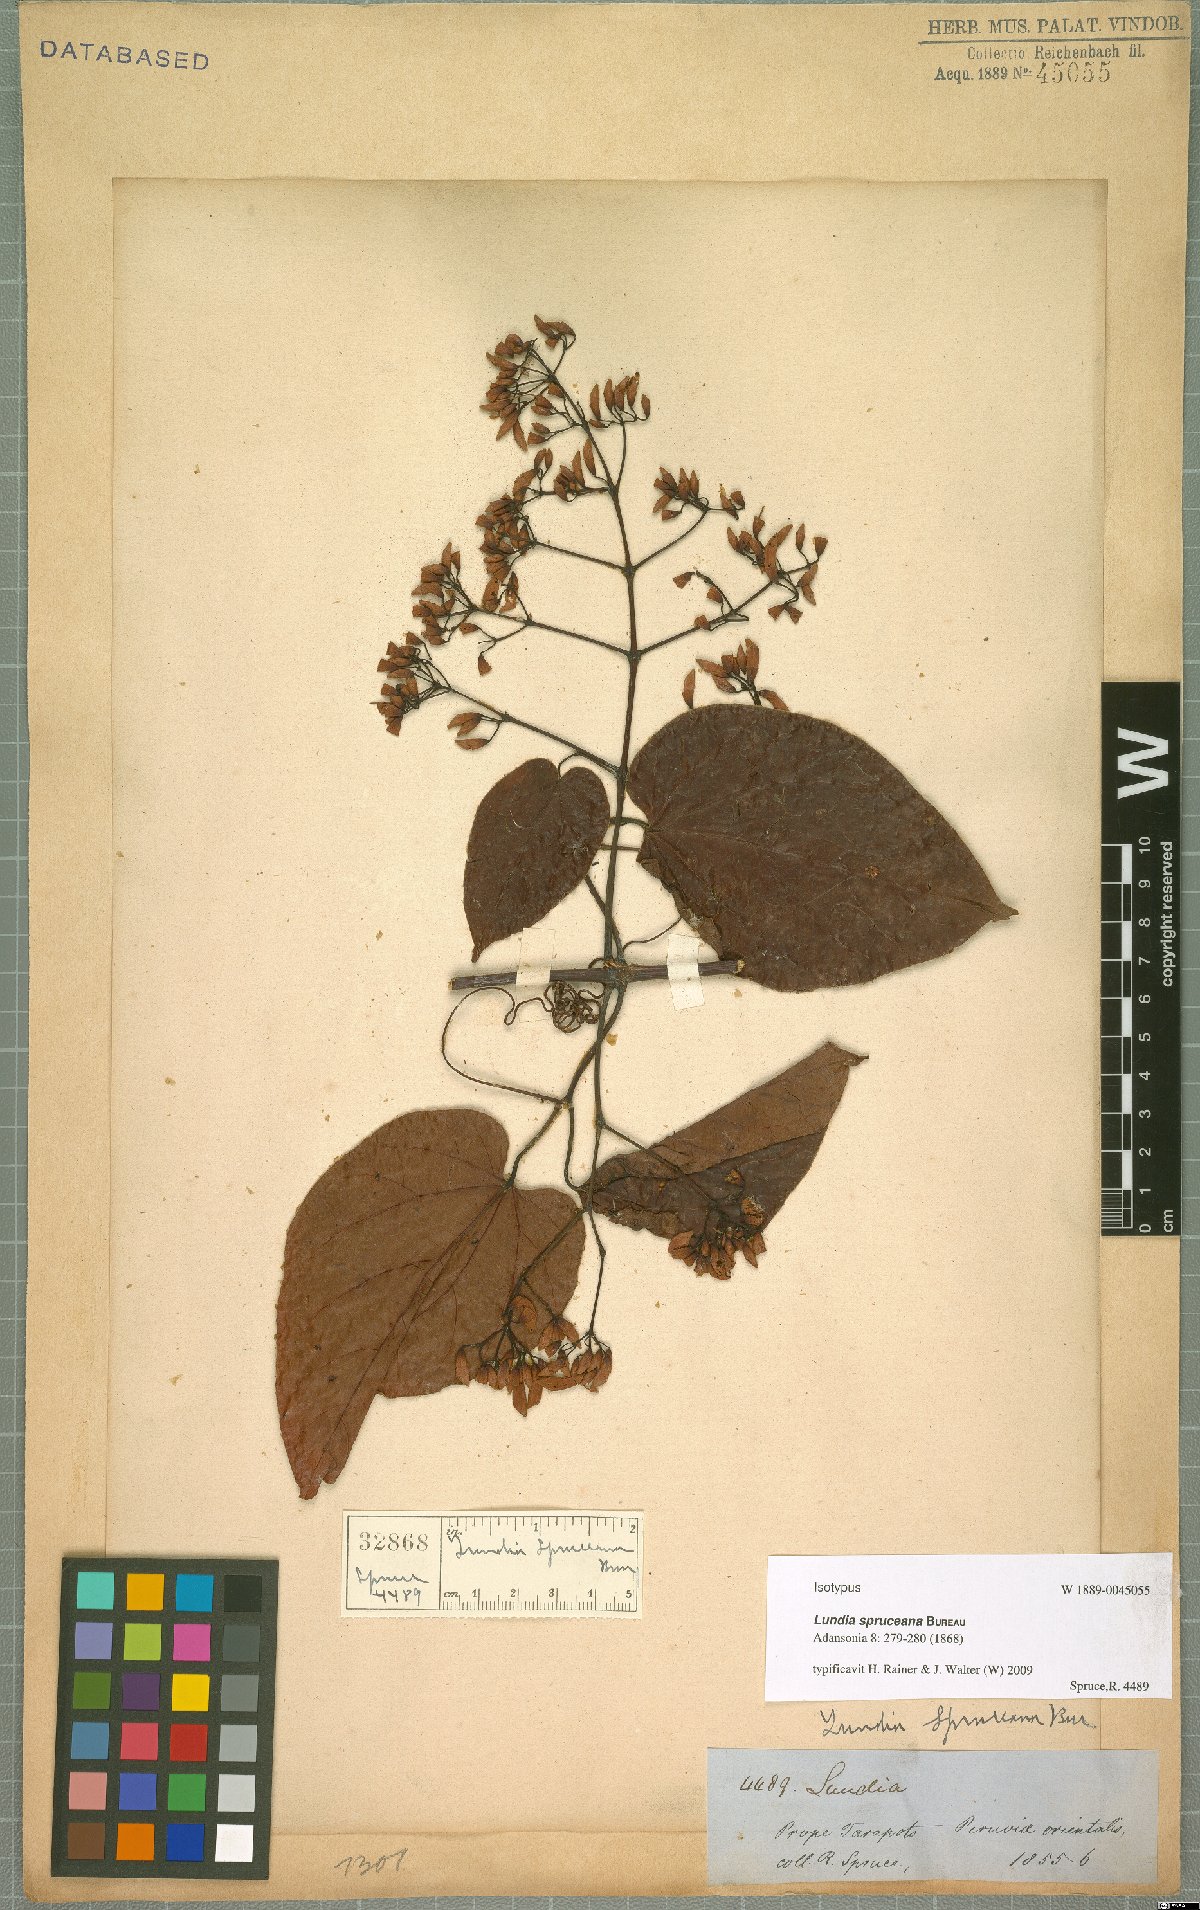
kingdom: Plantae
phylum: Tracheophyta
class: Magnoliopsida
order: Lamiales
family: Bignoniaceae
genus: Lundia
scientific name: Lundia spruceana
